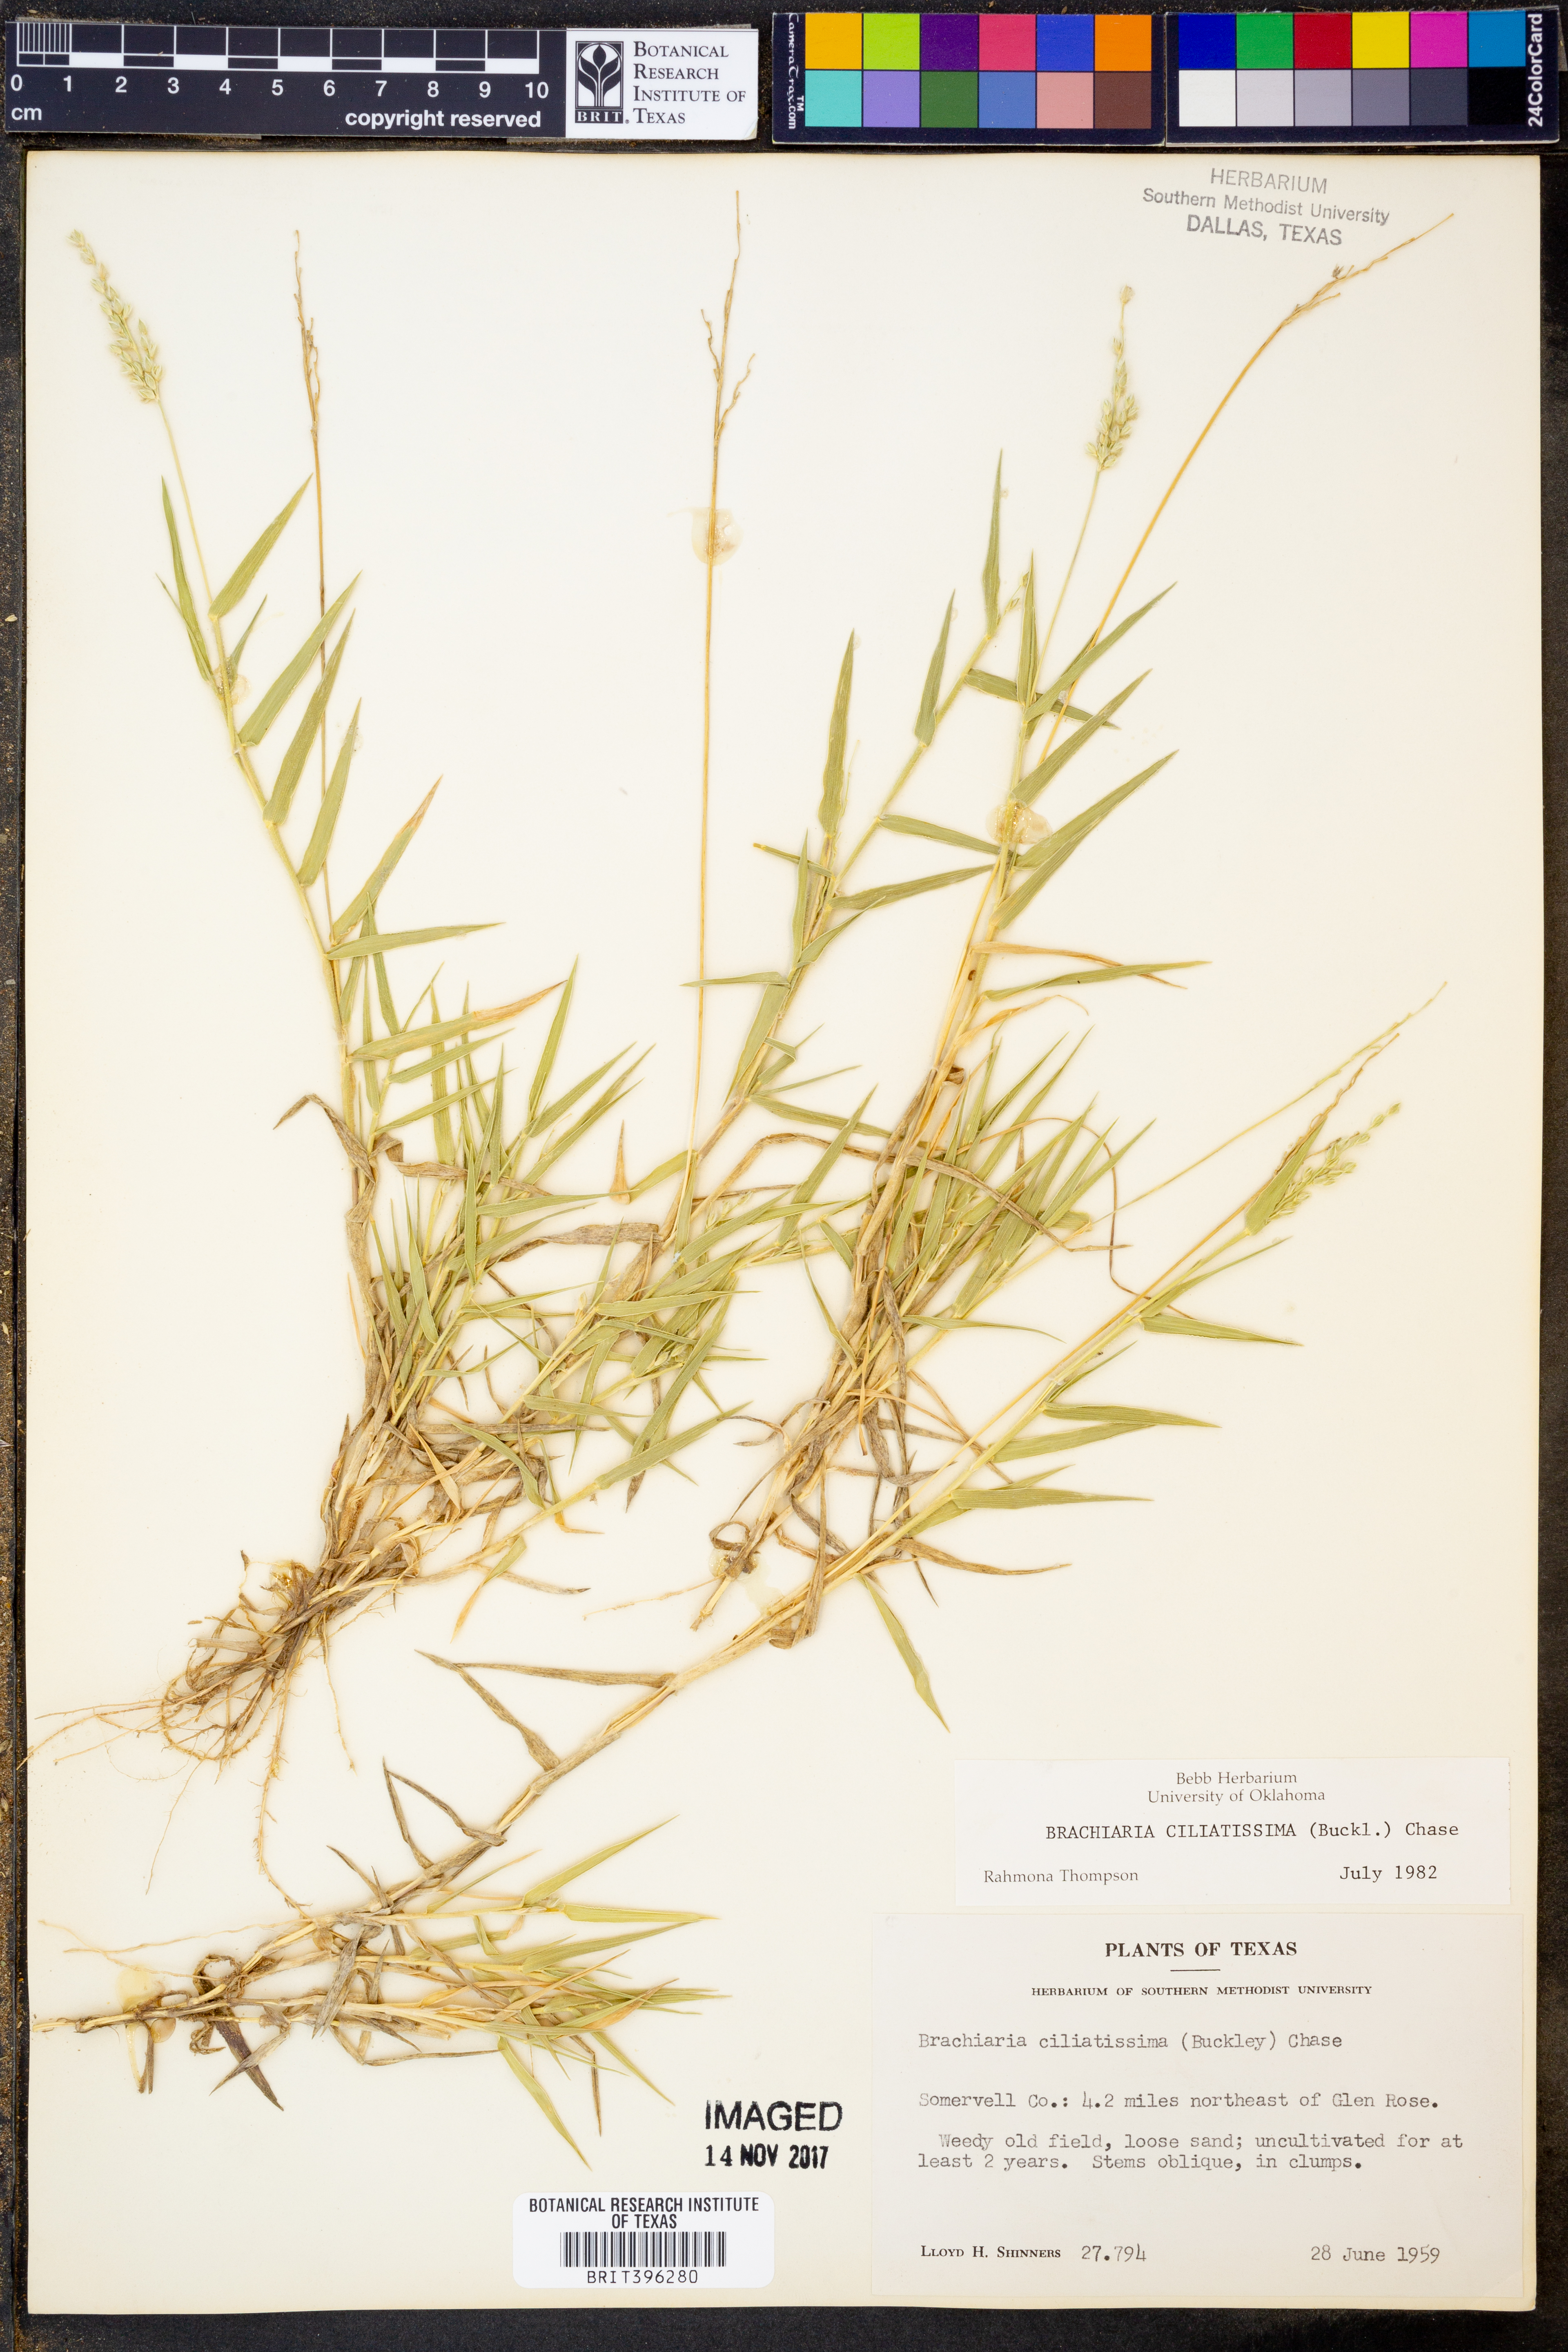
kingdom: Plantae
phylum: Tracheophyta
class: Liliopsida
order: Poales
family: Poaceae
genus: Urochloa
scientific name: Urochloa ciliatissima
